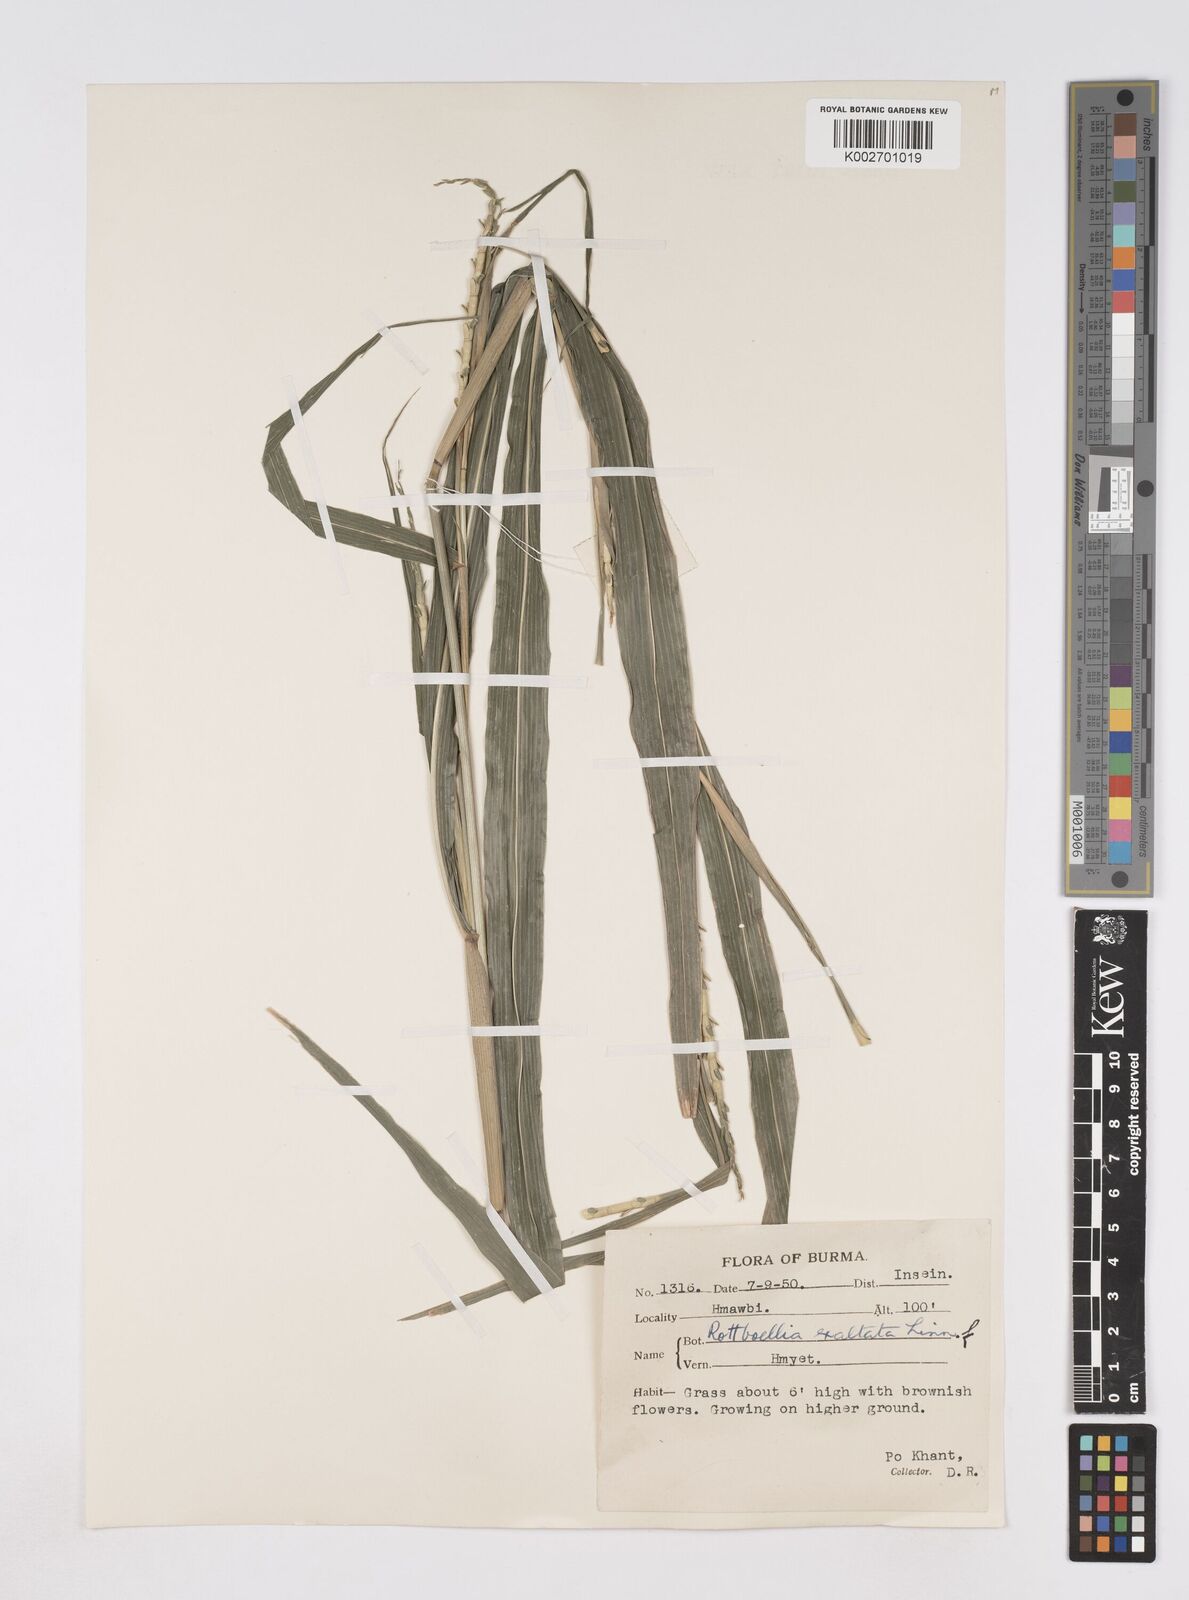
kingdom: Plantae
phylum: Tracheophyta
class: Liliopsida
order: Poales
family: Poaceae
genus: Ophiuros
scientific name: Ophiuros exaltatus
